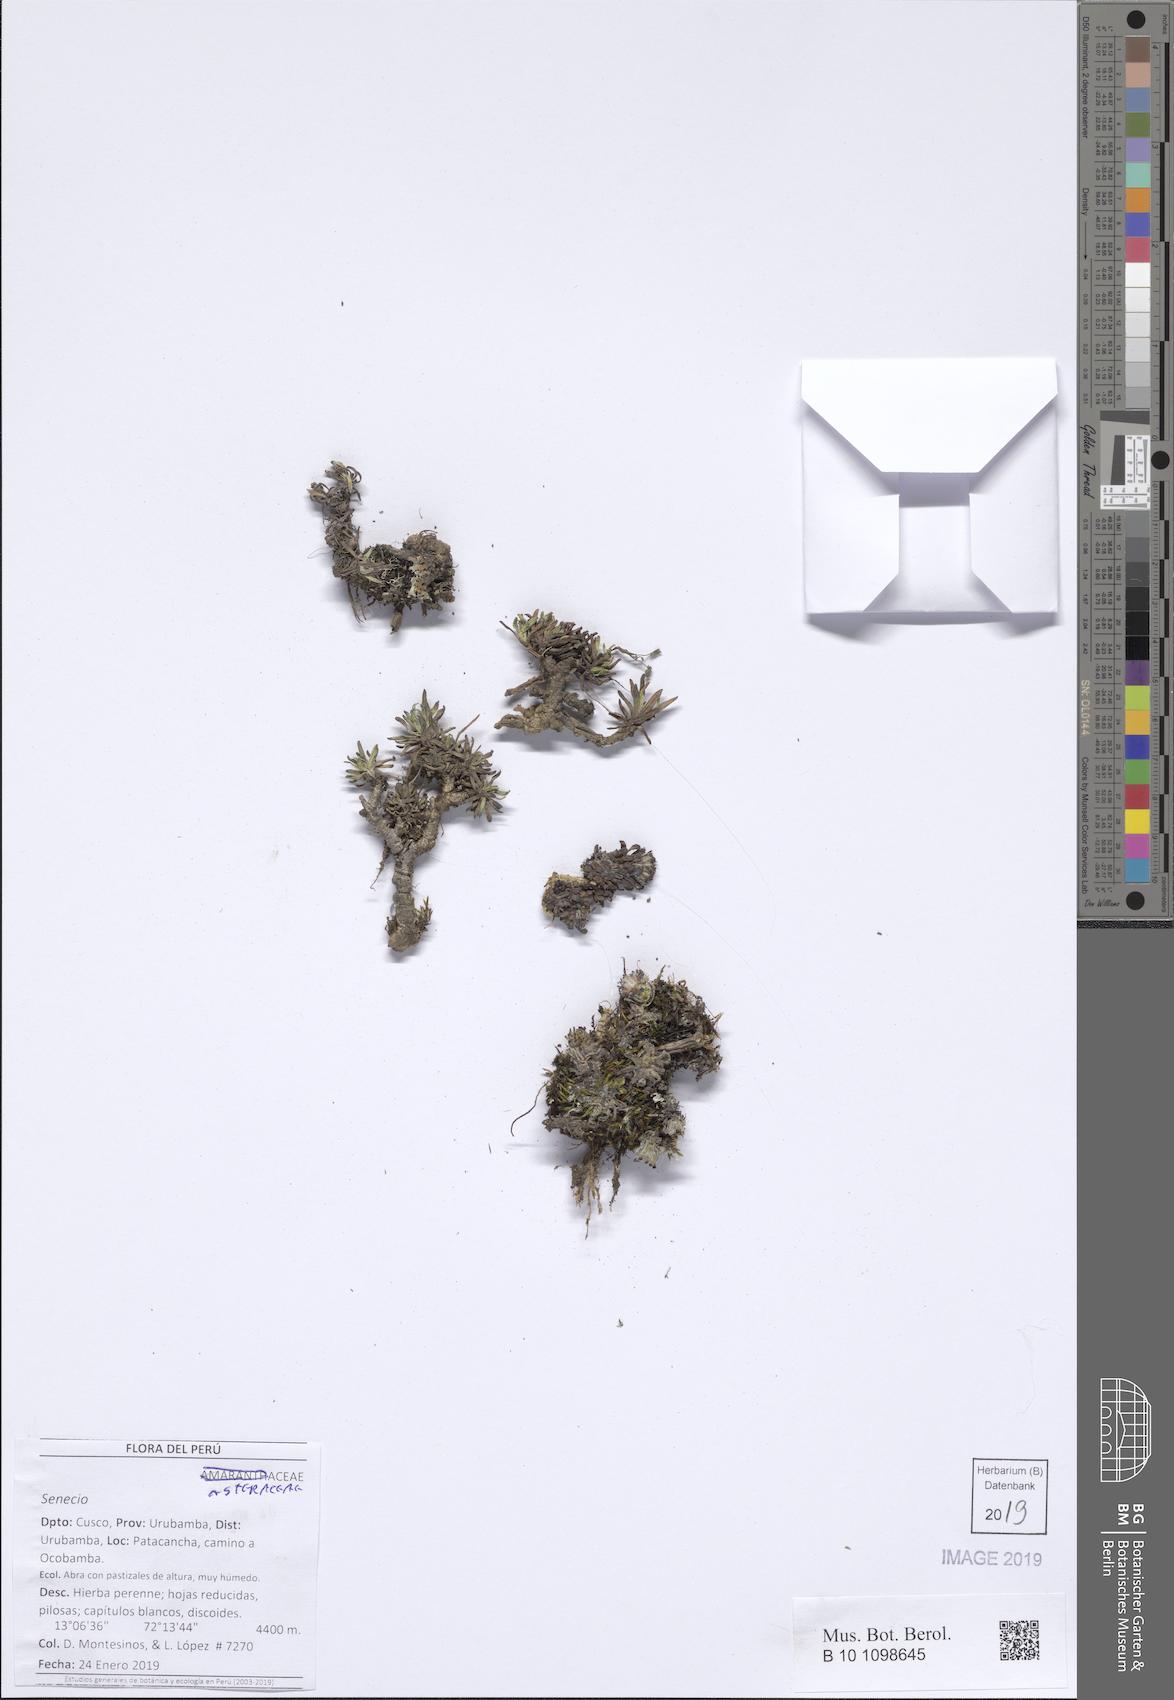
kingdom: Plantae
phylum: Tracheophyta
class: Magnoliopsida
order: Asterales
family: Asteraceae
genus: Senecio
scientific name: Senecio algens
